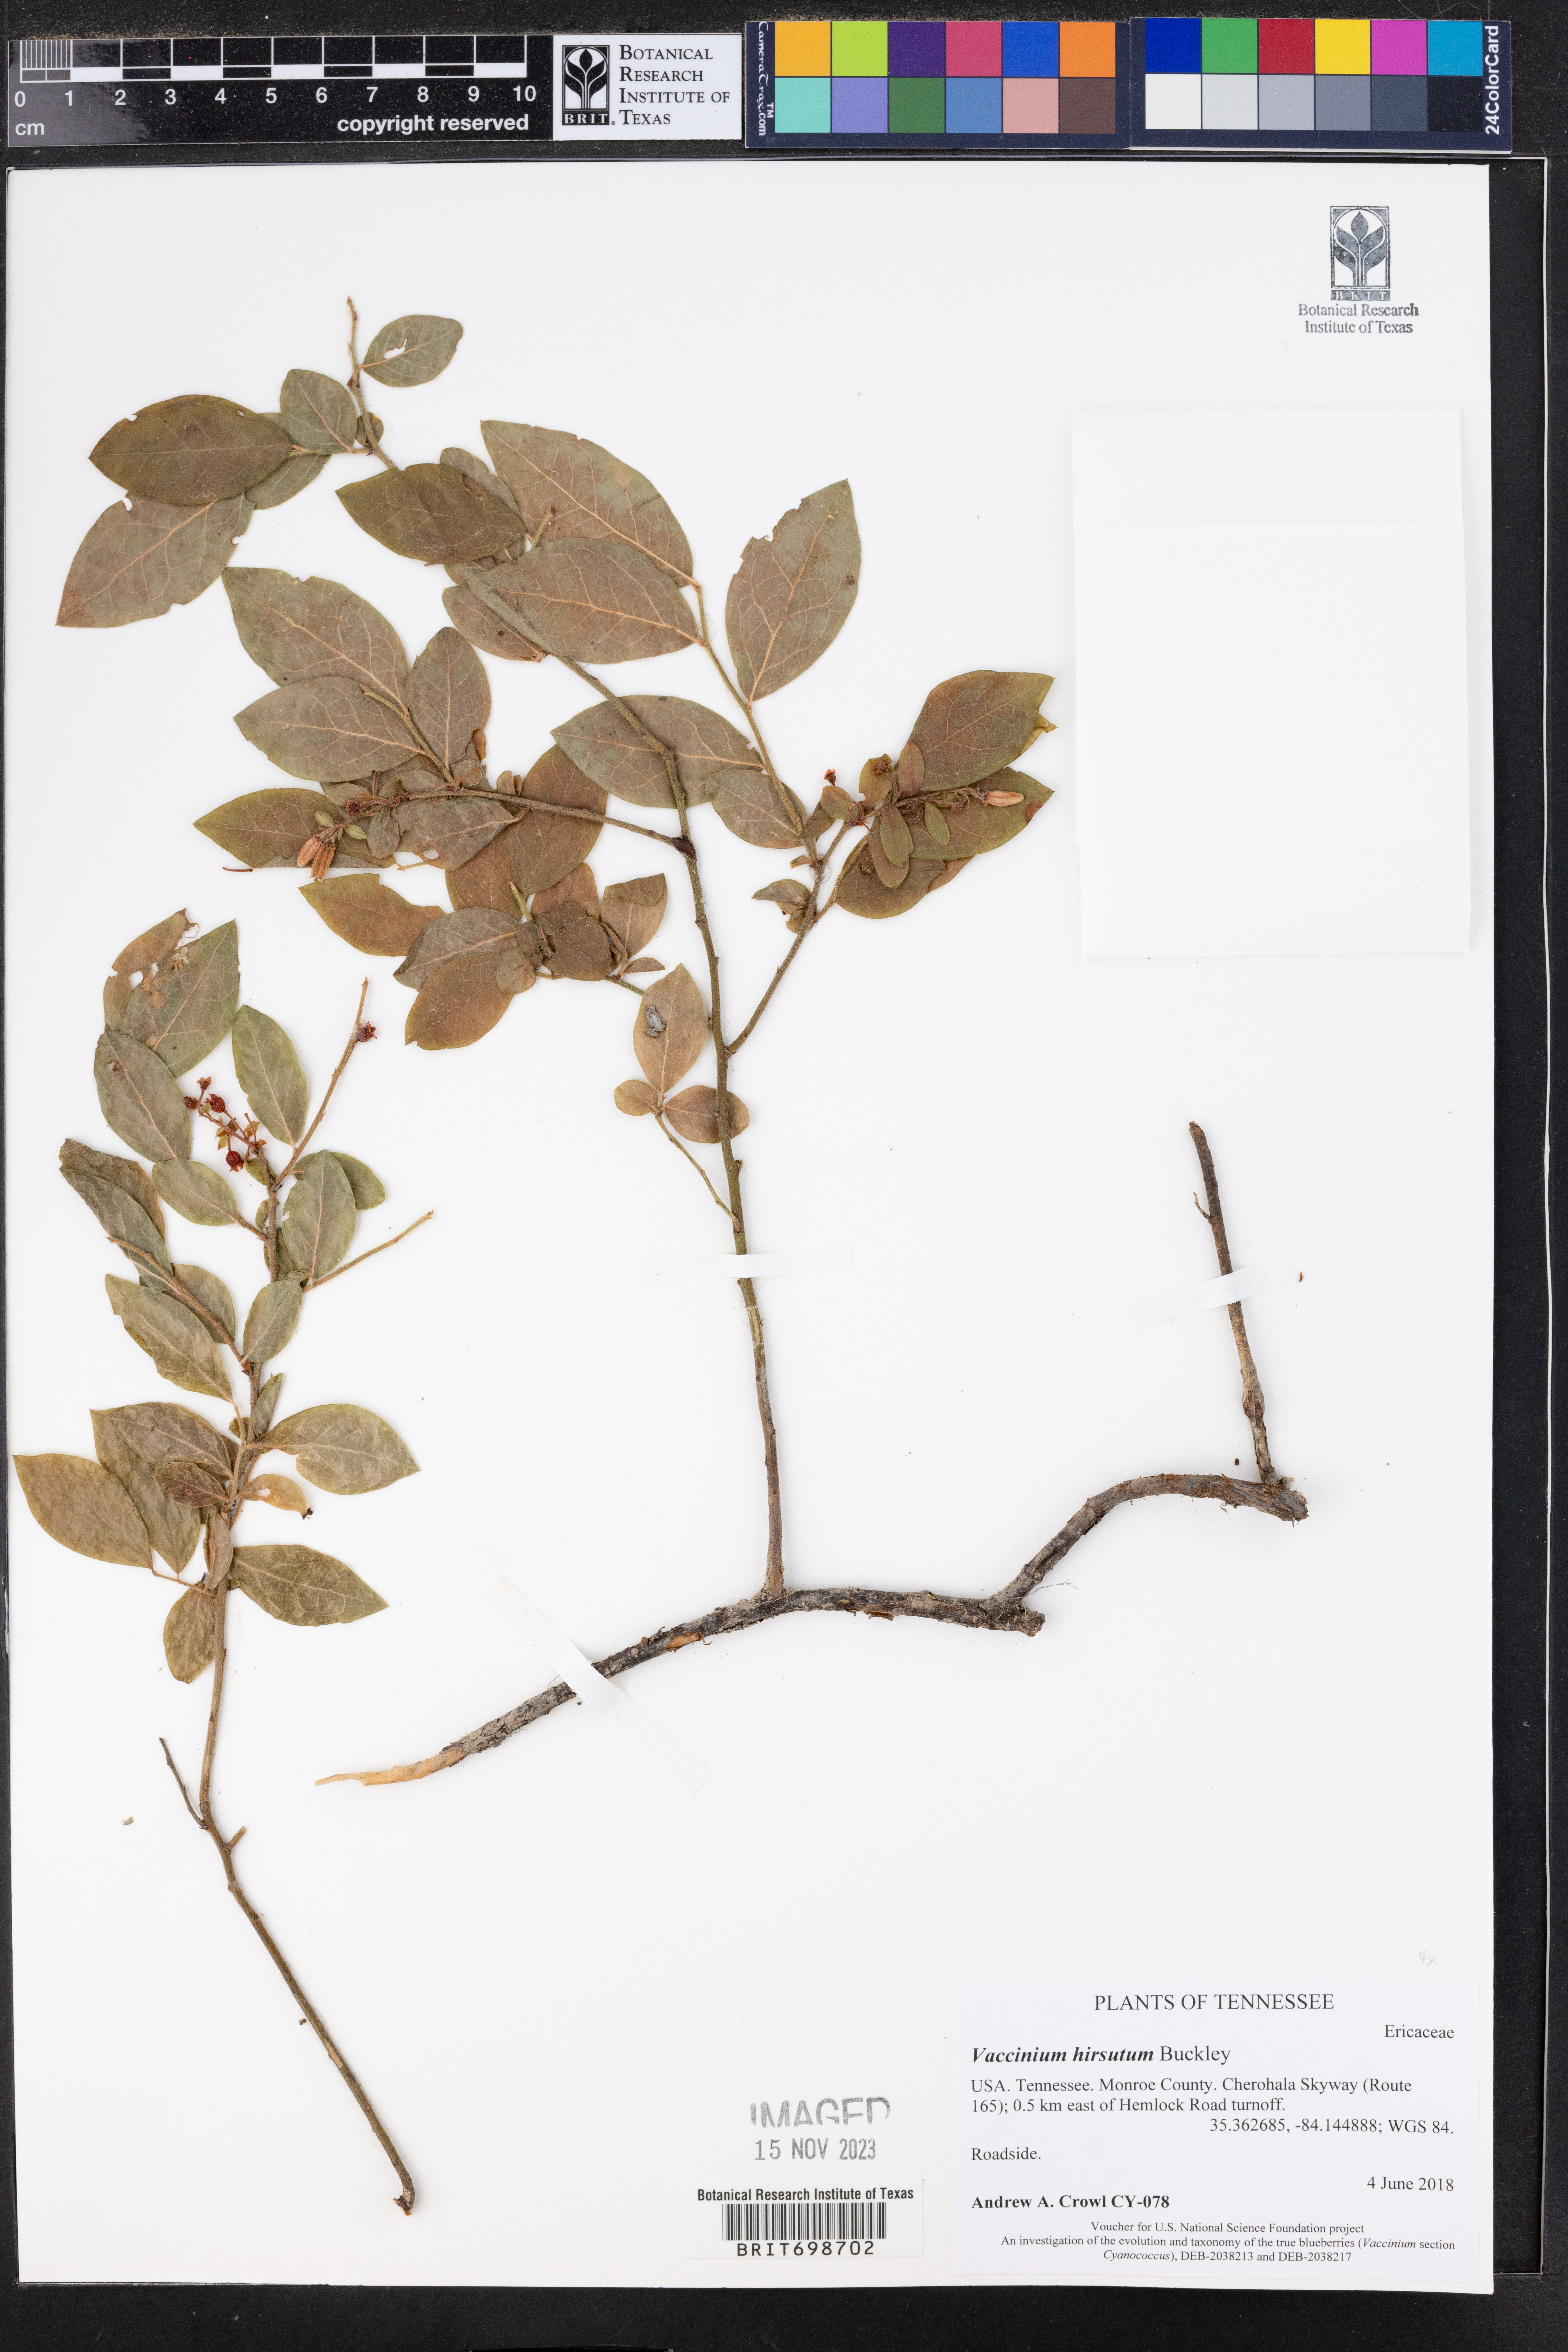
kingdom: Plantae
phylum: Tracheophyta
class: Magnoliopsida
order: Ericales
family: Ericaceae
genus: Vaccinium
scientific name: Vaccinium hirsutum
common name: Woolly-berry
